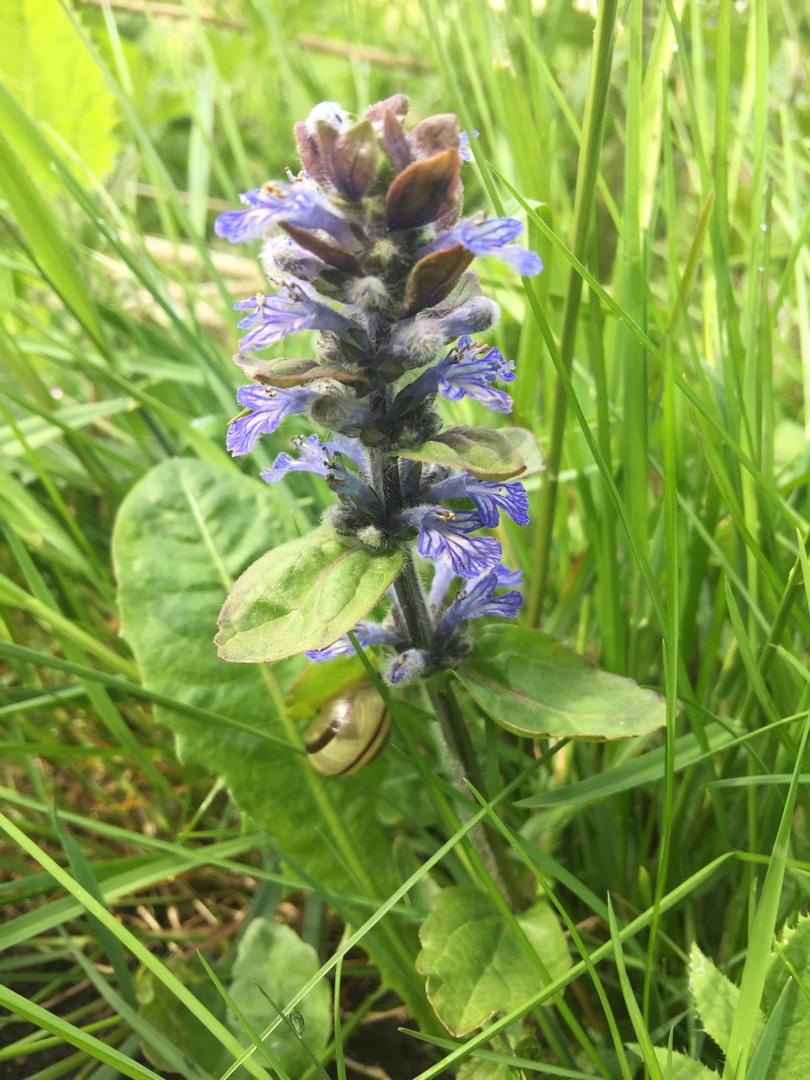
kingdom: Plantae
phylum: Tracheophyta
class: Magnoliopsida
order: Lamiales
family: Lamiaceae
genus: Ajuga
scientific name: Ajuga reptans
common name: Krybende læbeløs
